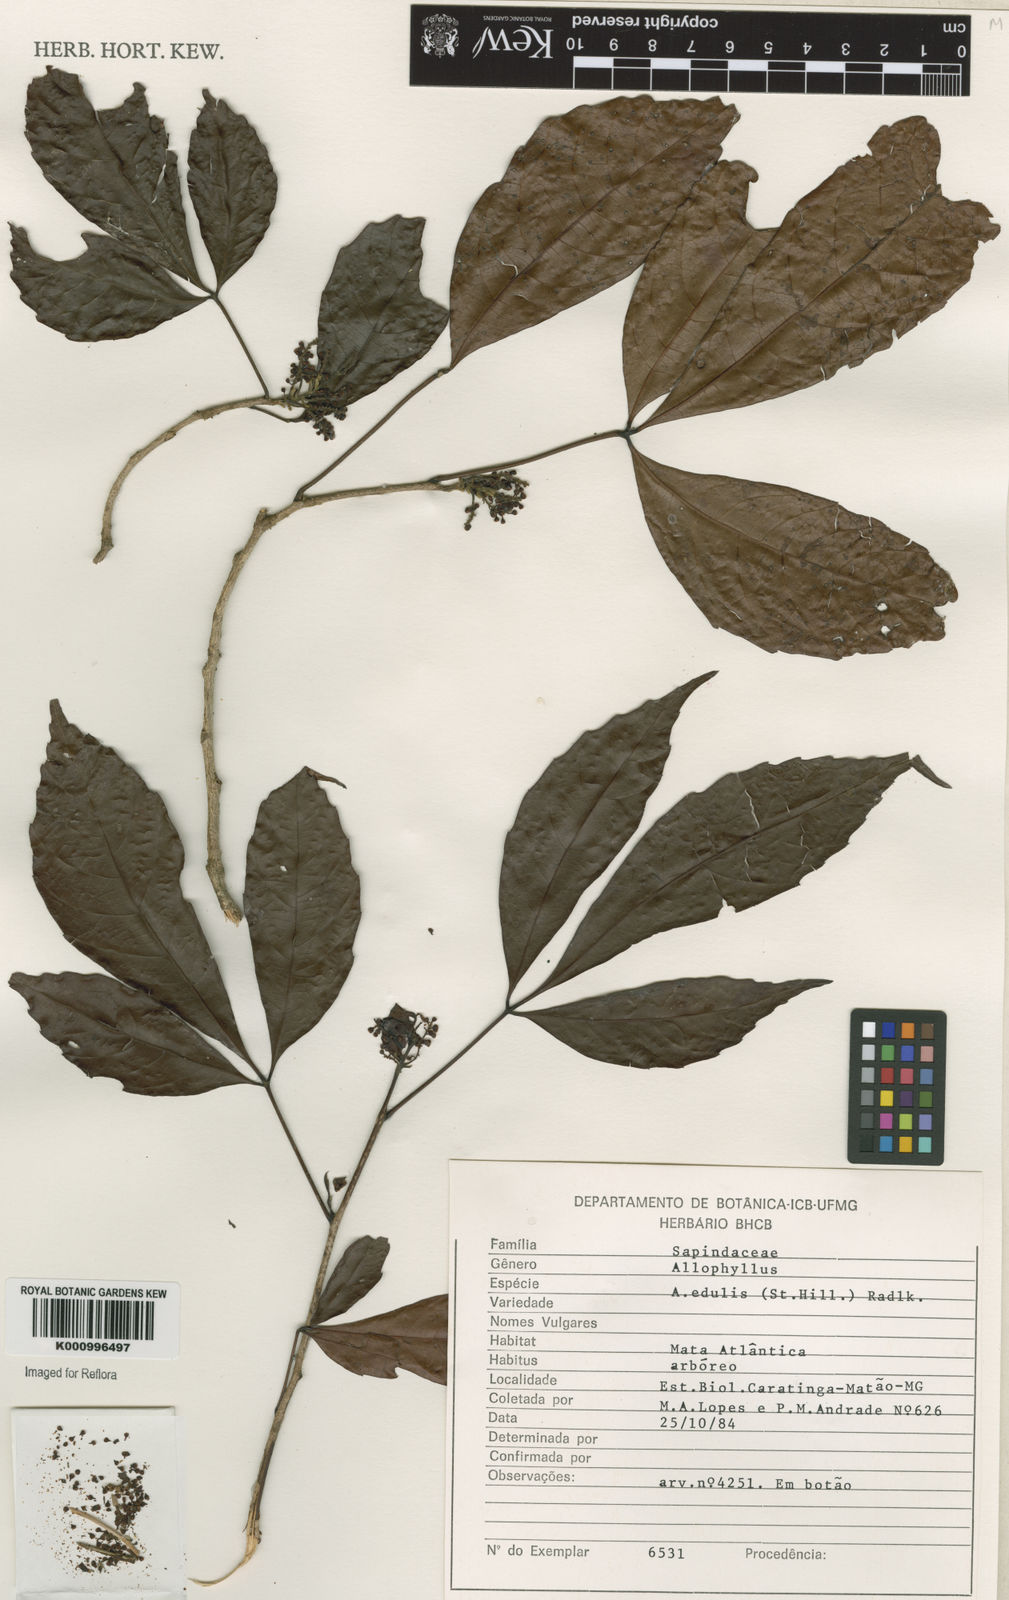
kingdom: Plantae
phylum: Tracheophyta
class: Magnoliopsida
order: Sapindales
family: Sapindaceae
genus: Allophylus
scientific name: Allophylus edulis
